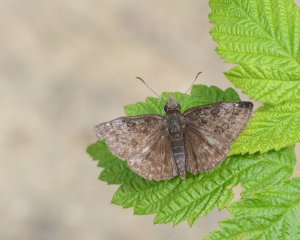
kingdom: Animalia
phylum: Arthropoda
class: Insecta
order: Lepidoptera
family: Hesperiidae
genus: Erynnis
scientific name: Erynnis icelus
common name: Dreamy Duskywing
